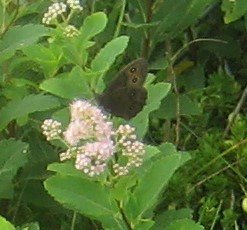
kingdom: Animalia
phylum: Arthropoda
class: Insecta
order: Lepidoptera
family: Nymphalidae
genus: Cercyonis
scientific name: Cercyonis pegala
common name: Common Wood-Nymph
